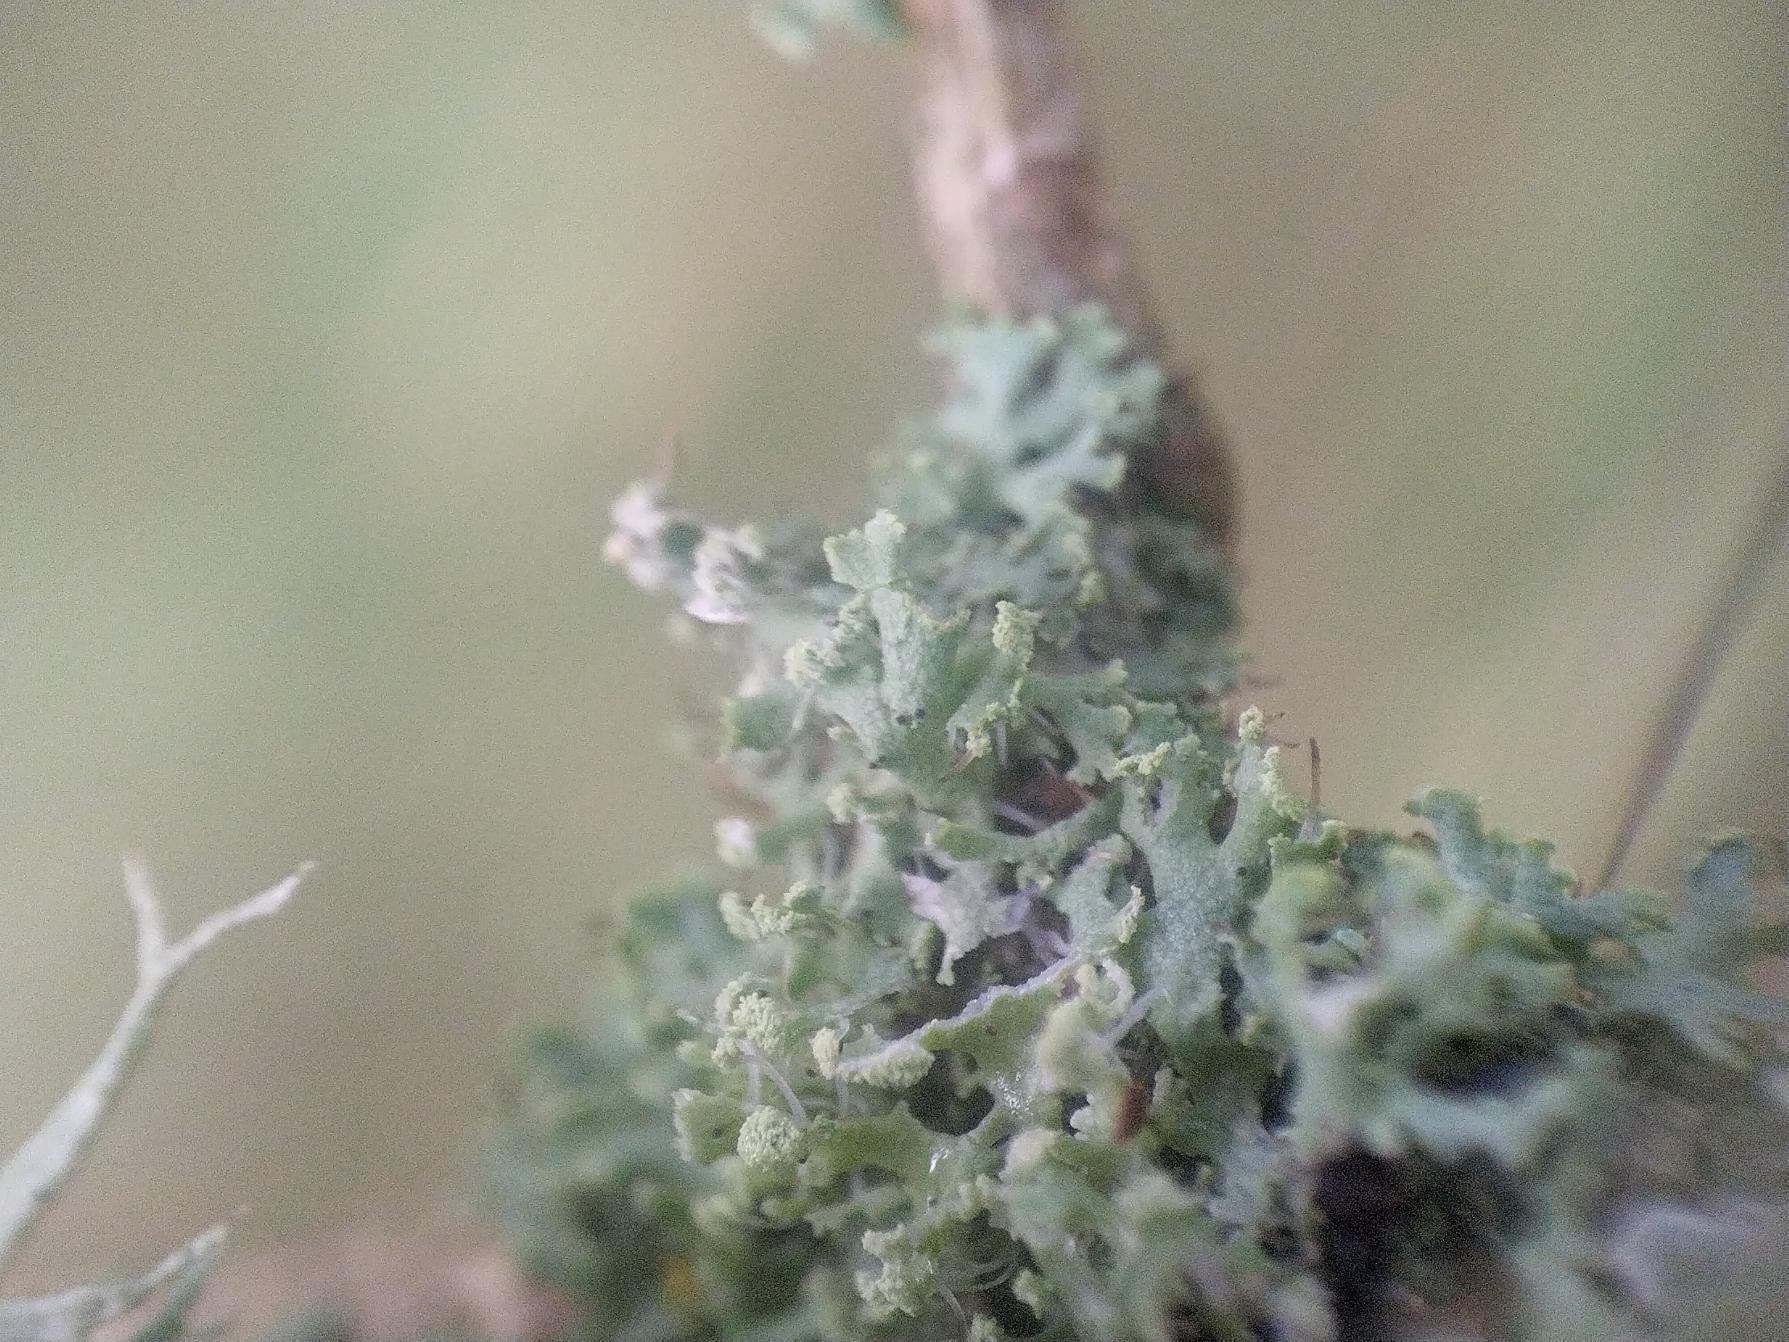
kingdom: Fungi
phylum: Ascomycota
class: Lecanoromycetes
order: Caliciales
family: Physciaceae
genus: Physcia
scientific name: Physcia tenella
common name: Spæd rosetlav
